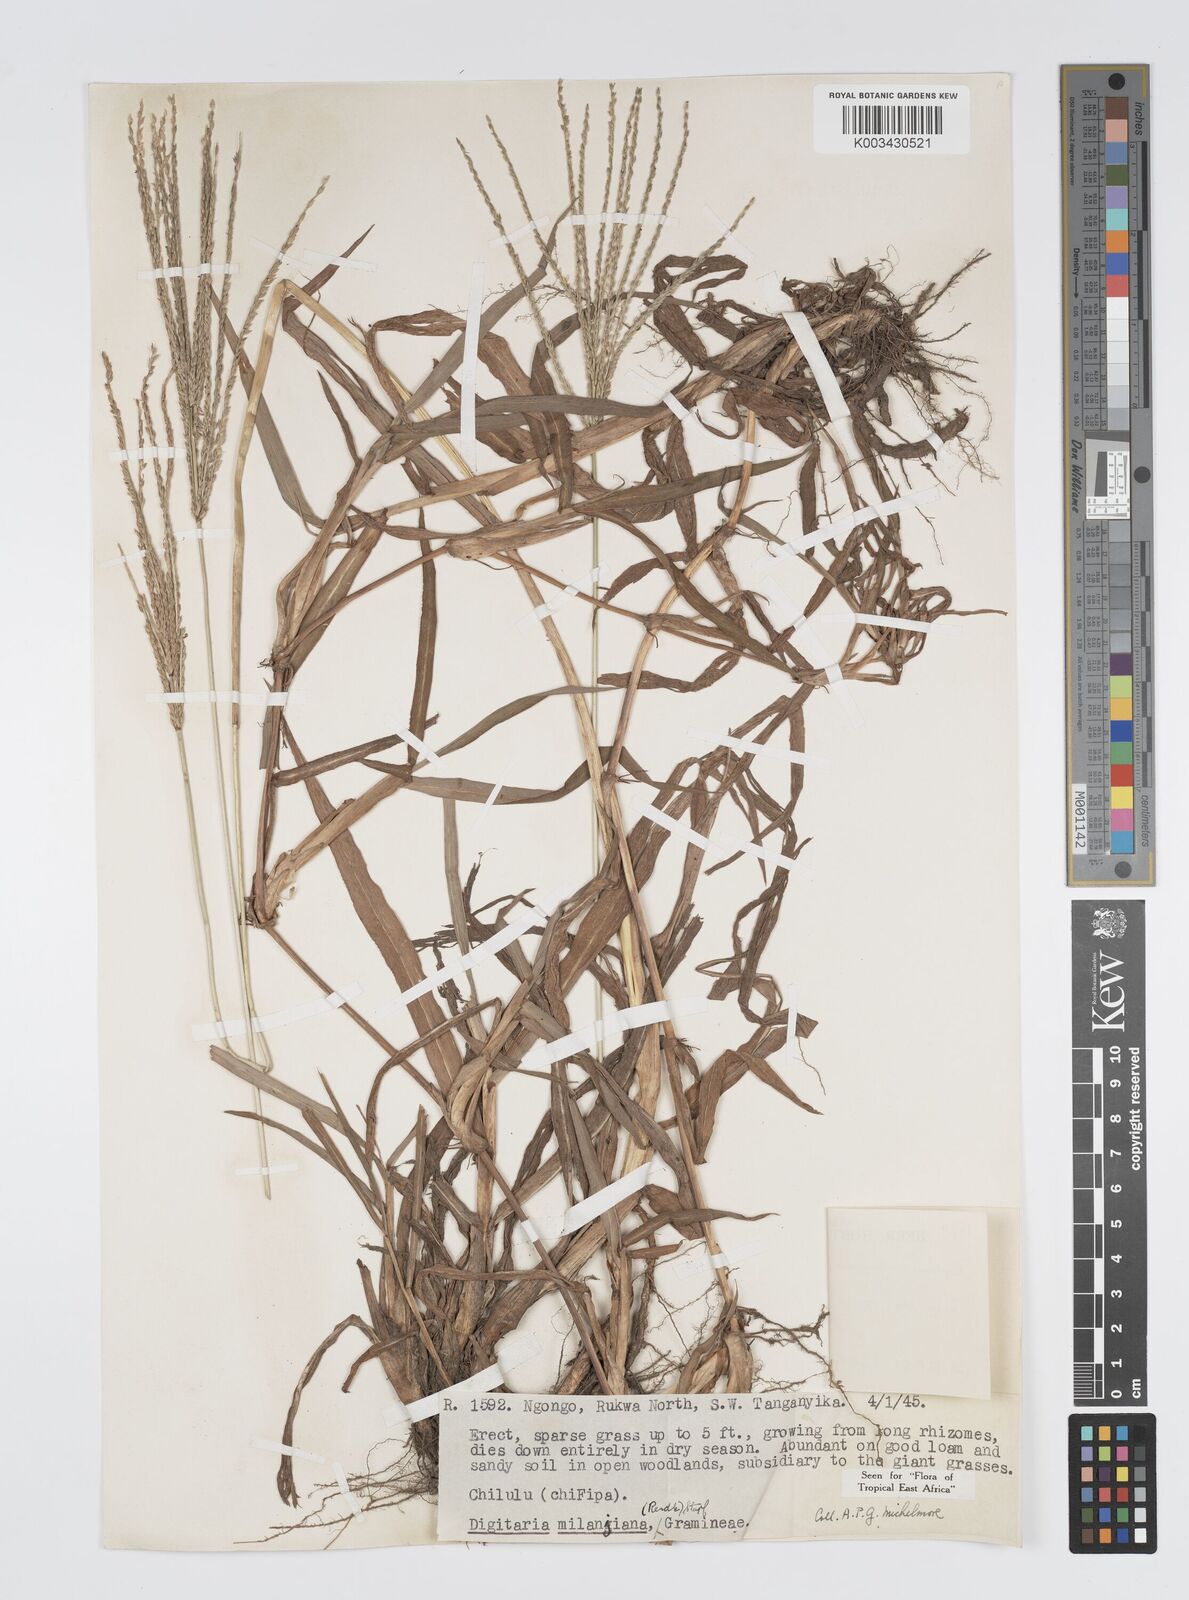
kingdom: Plantae
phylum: Tracheophyta
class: Liliopsida
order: Poales
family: Poaceae
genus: Digitaria
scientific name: Digitaria milanjiana
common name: Madagascar crabgrass
